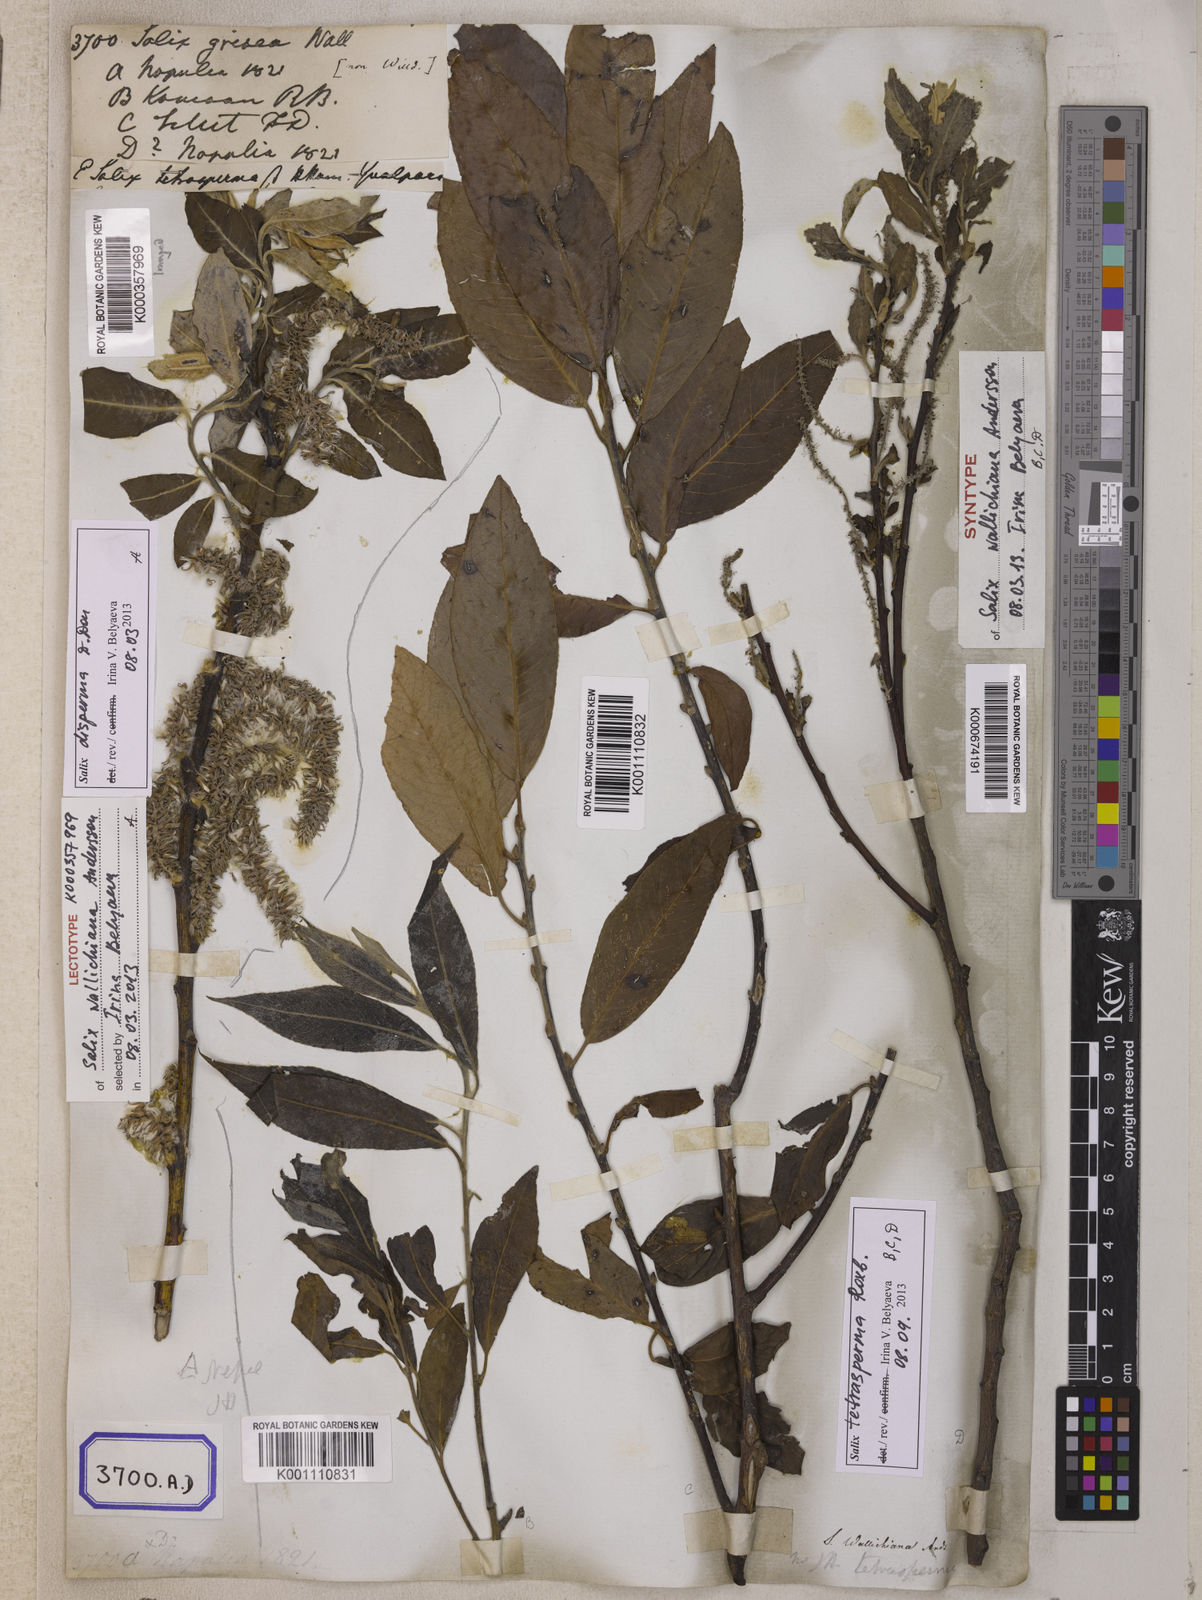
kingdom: Plantae
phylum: Tracheophyta
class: Magnoliopsida
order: Malpighiales
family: Salicaceae
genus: Salix
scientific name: Salix disperma
